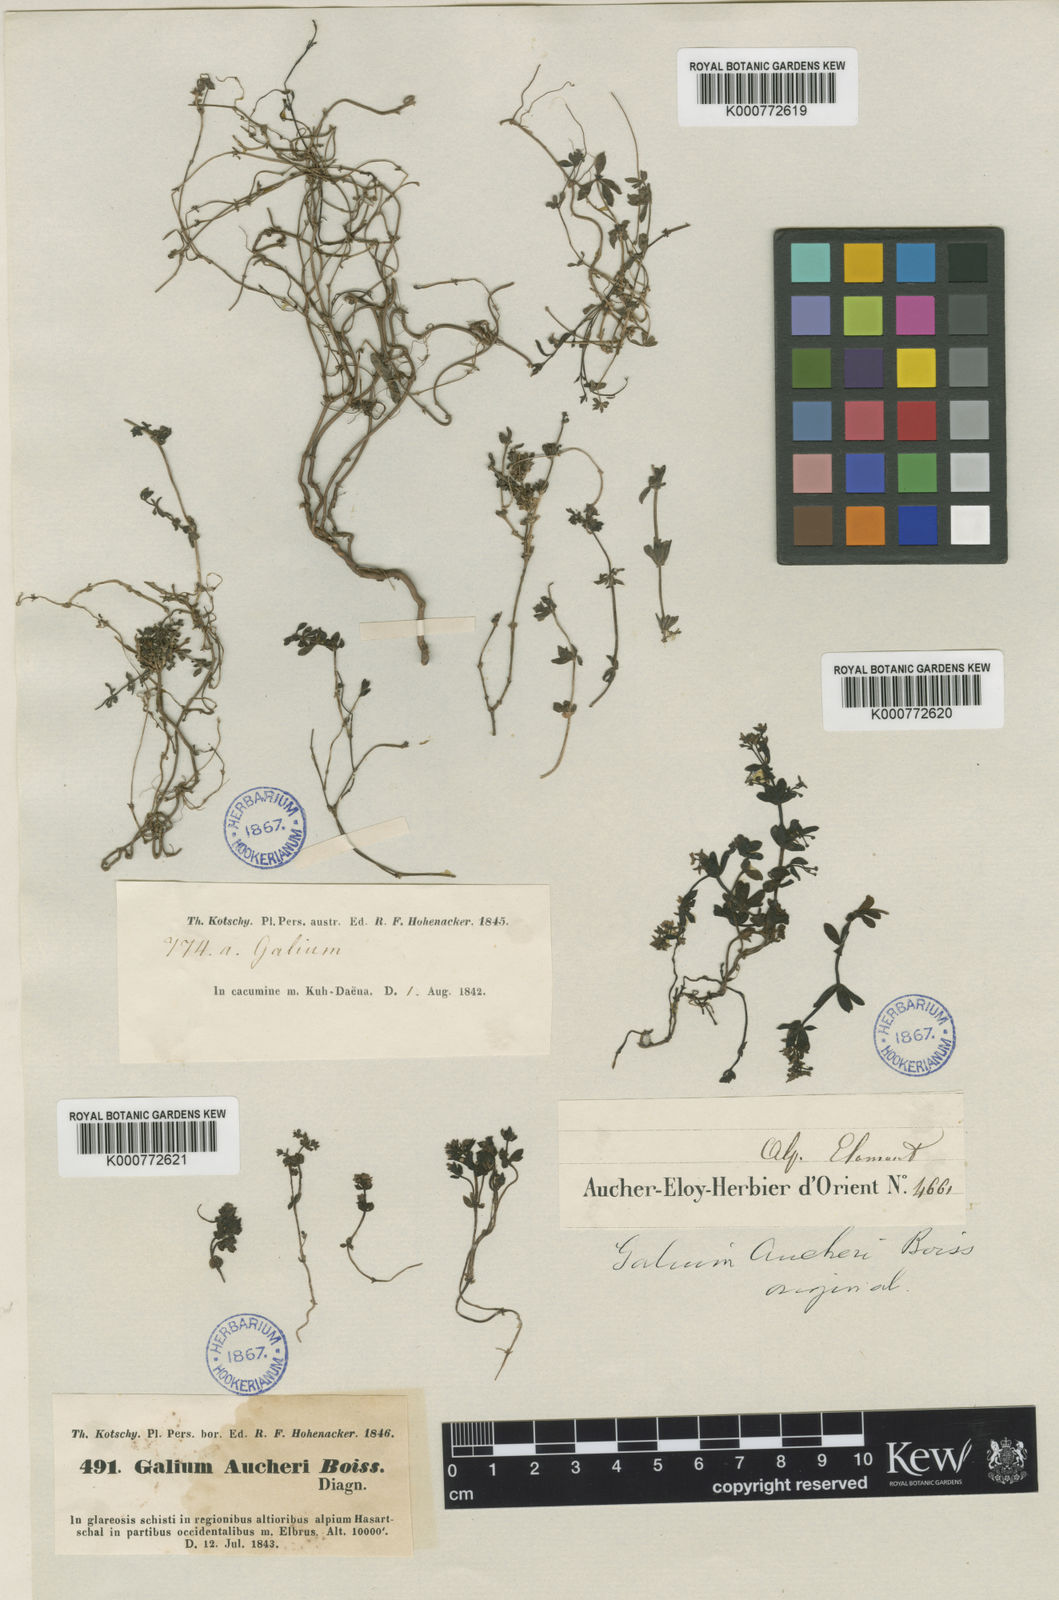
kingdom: Plantae
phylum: Tracheophyta
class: Magnoliopsida
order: Gentianales
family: Rubiaceae
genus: Galium
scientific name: Galium aucheri
